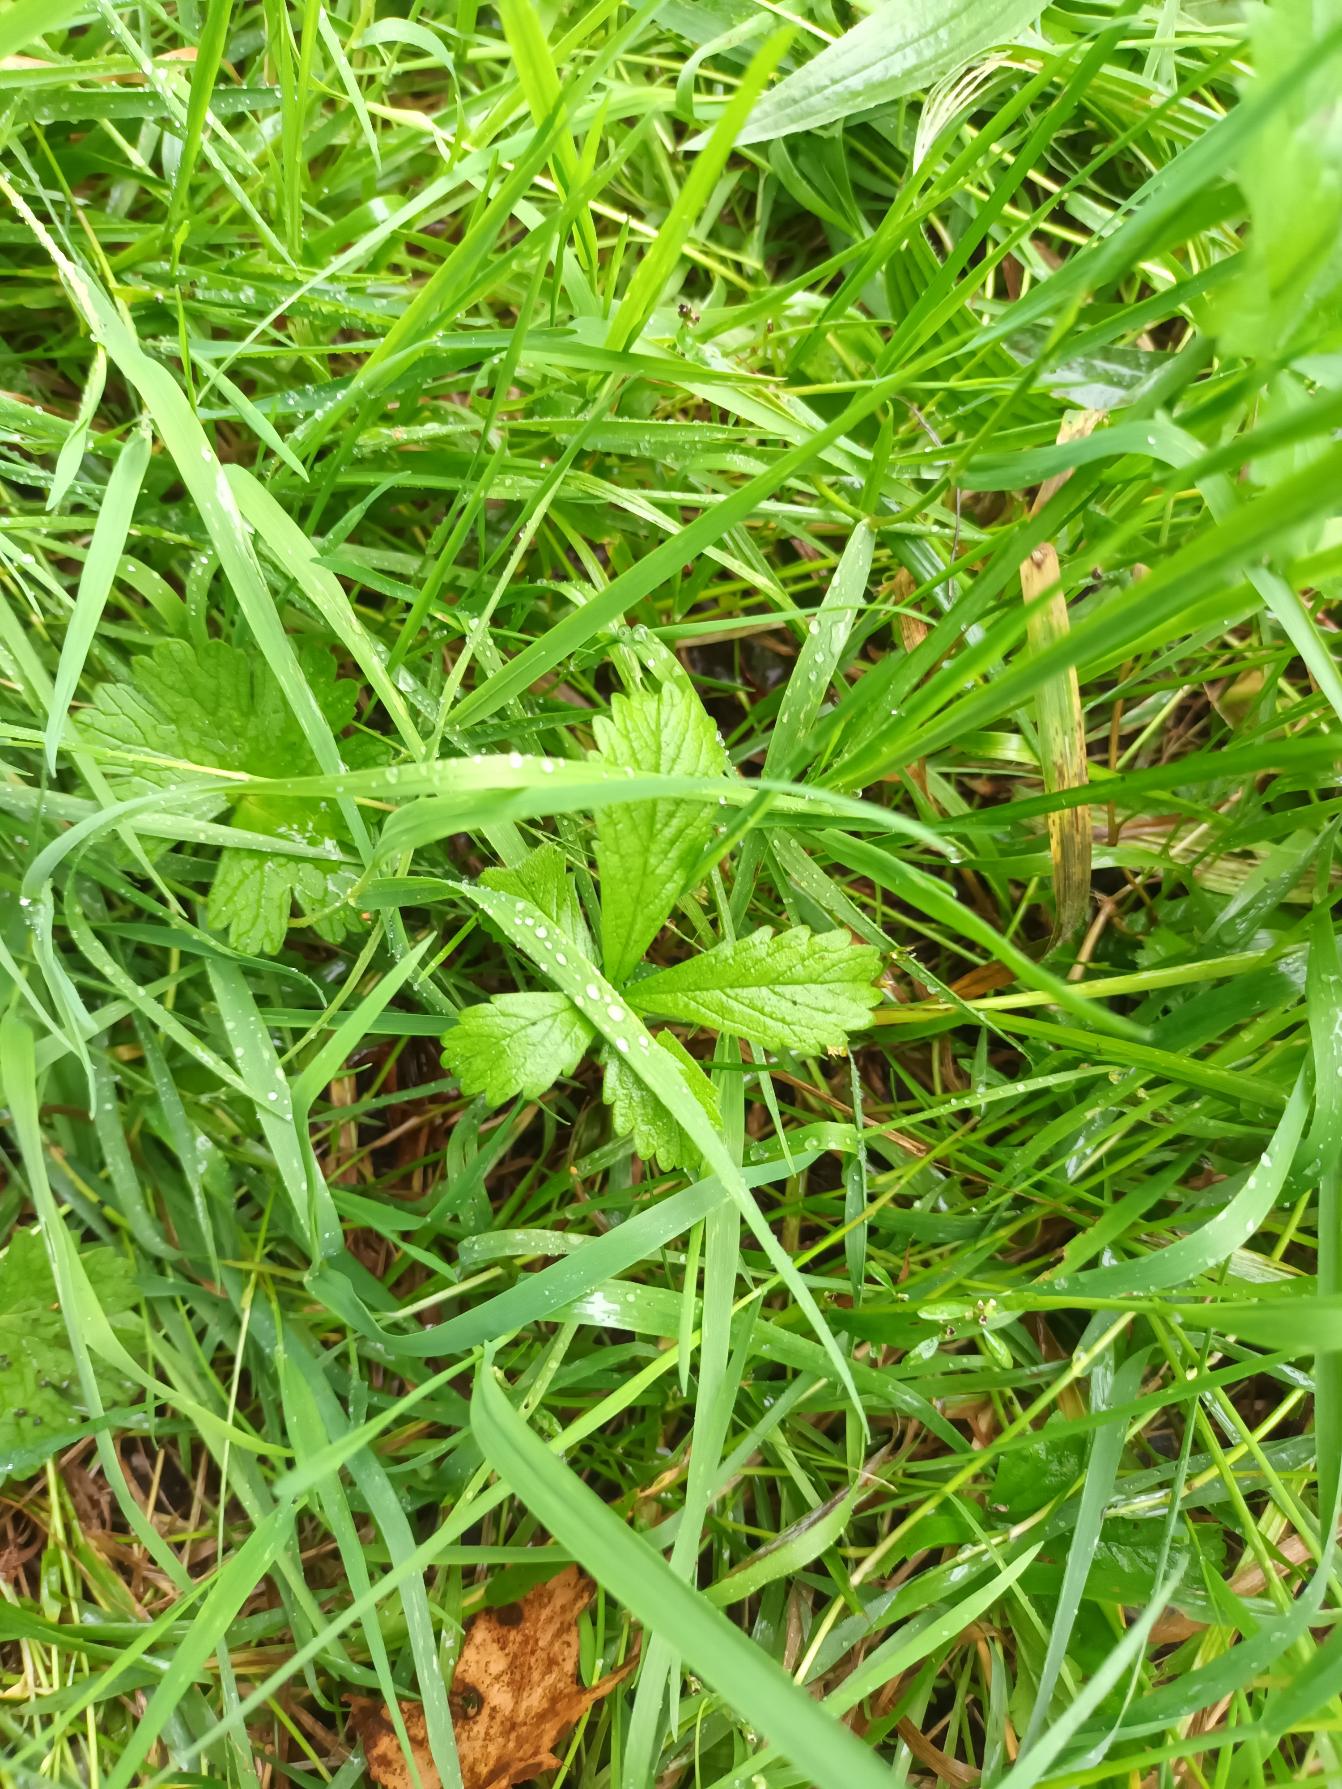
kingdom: Plantae
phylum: Tracheophyta
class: Magnoliopsida
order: Rosales
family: Rosaceae
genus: Potentilla
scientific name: Potentilla reptans
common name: Krybende potentil
